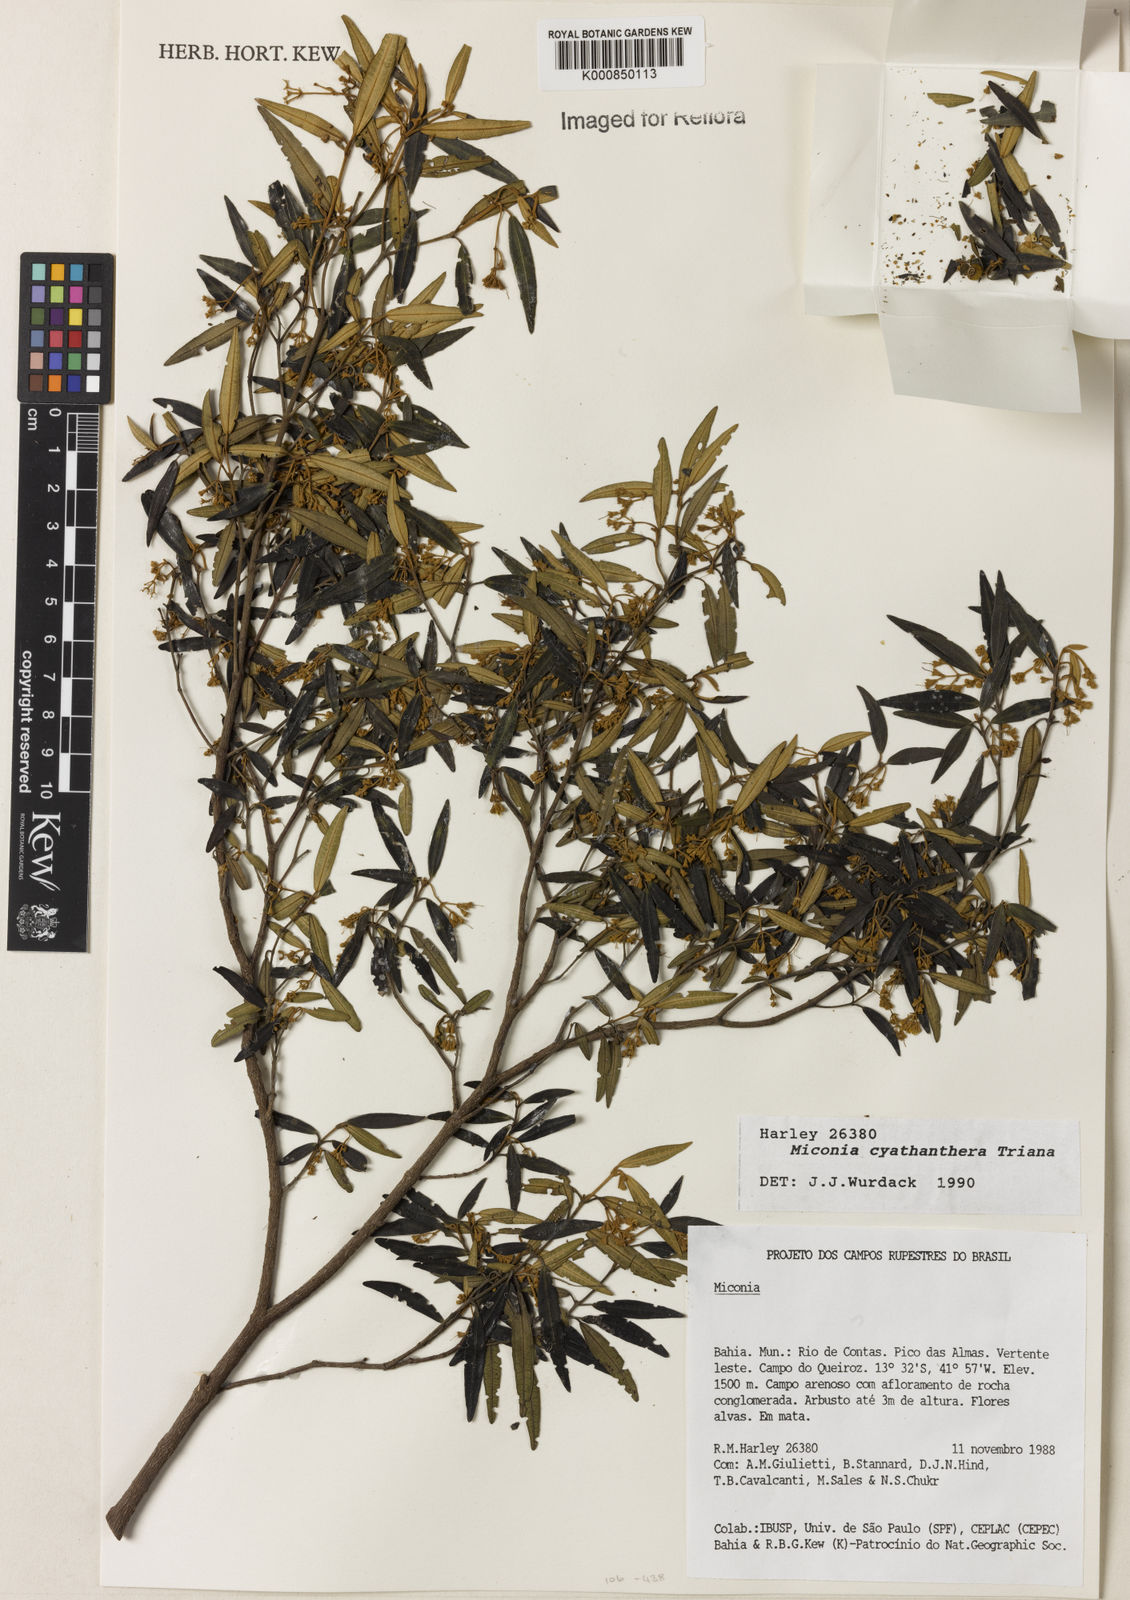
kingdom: Plantae
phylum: Tracheophyta
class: Magnoliopsida
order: Myrtales
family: Melastomataceae
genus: Miconia
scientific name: Miconia cyathanthera
